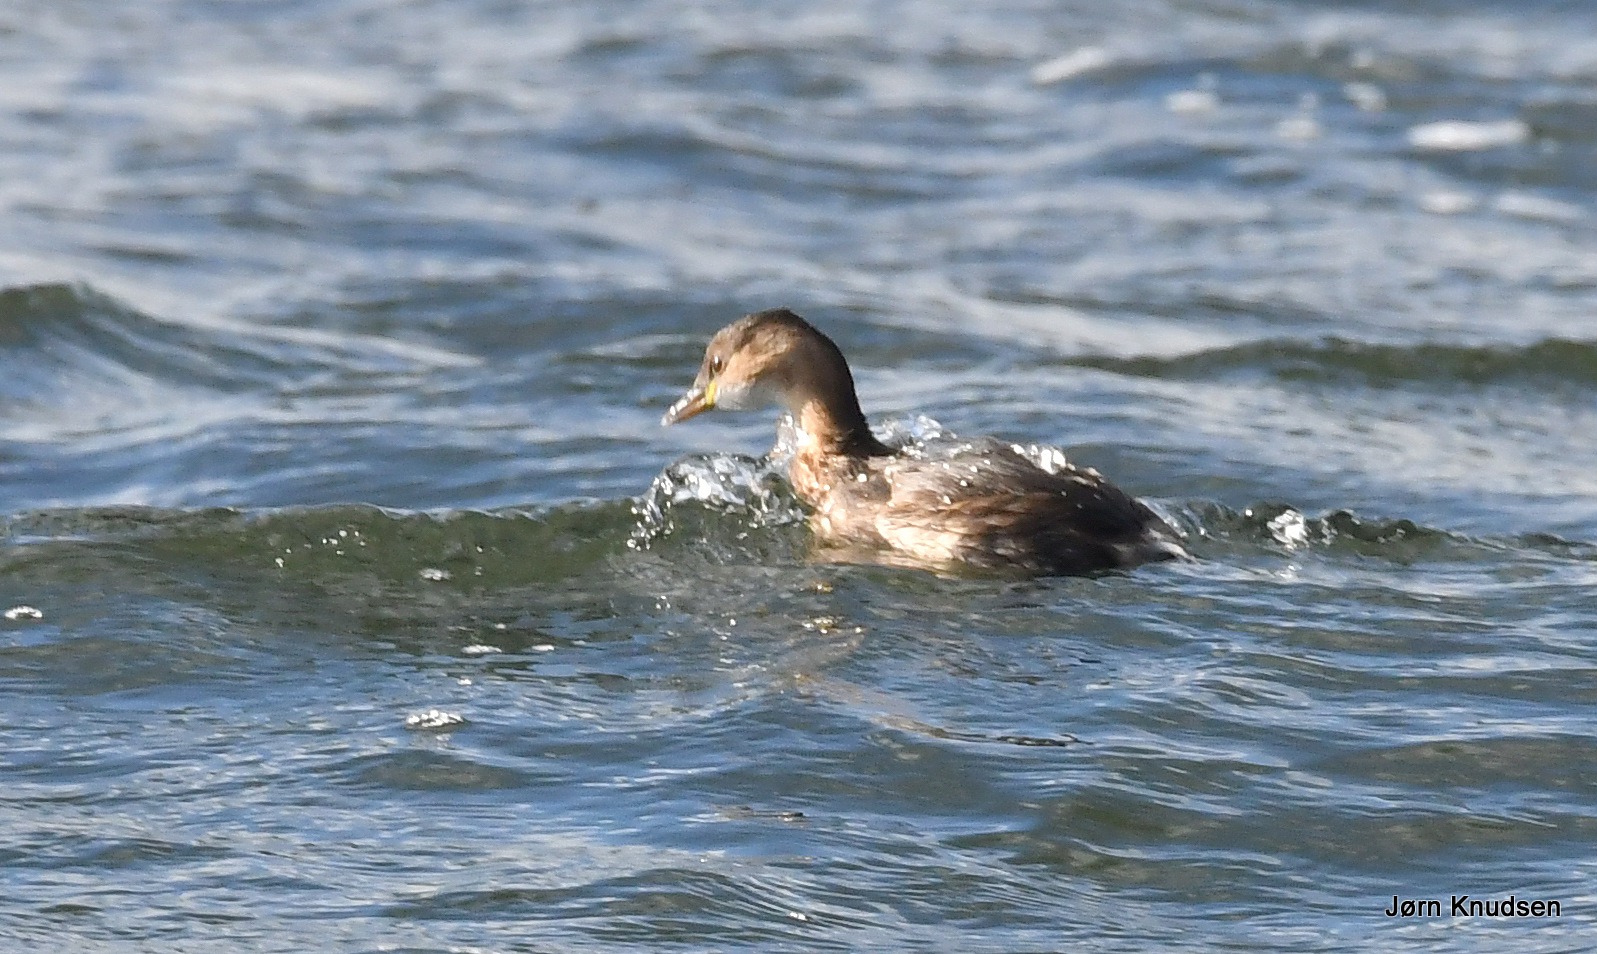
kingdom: Animalia
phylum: Chordata
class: Aves
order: Podicipediformes
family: Podicipedidae
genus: Tachybaptus
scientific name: Tachybaptus ruficollis
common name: Lille lappedykker
